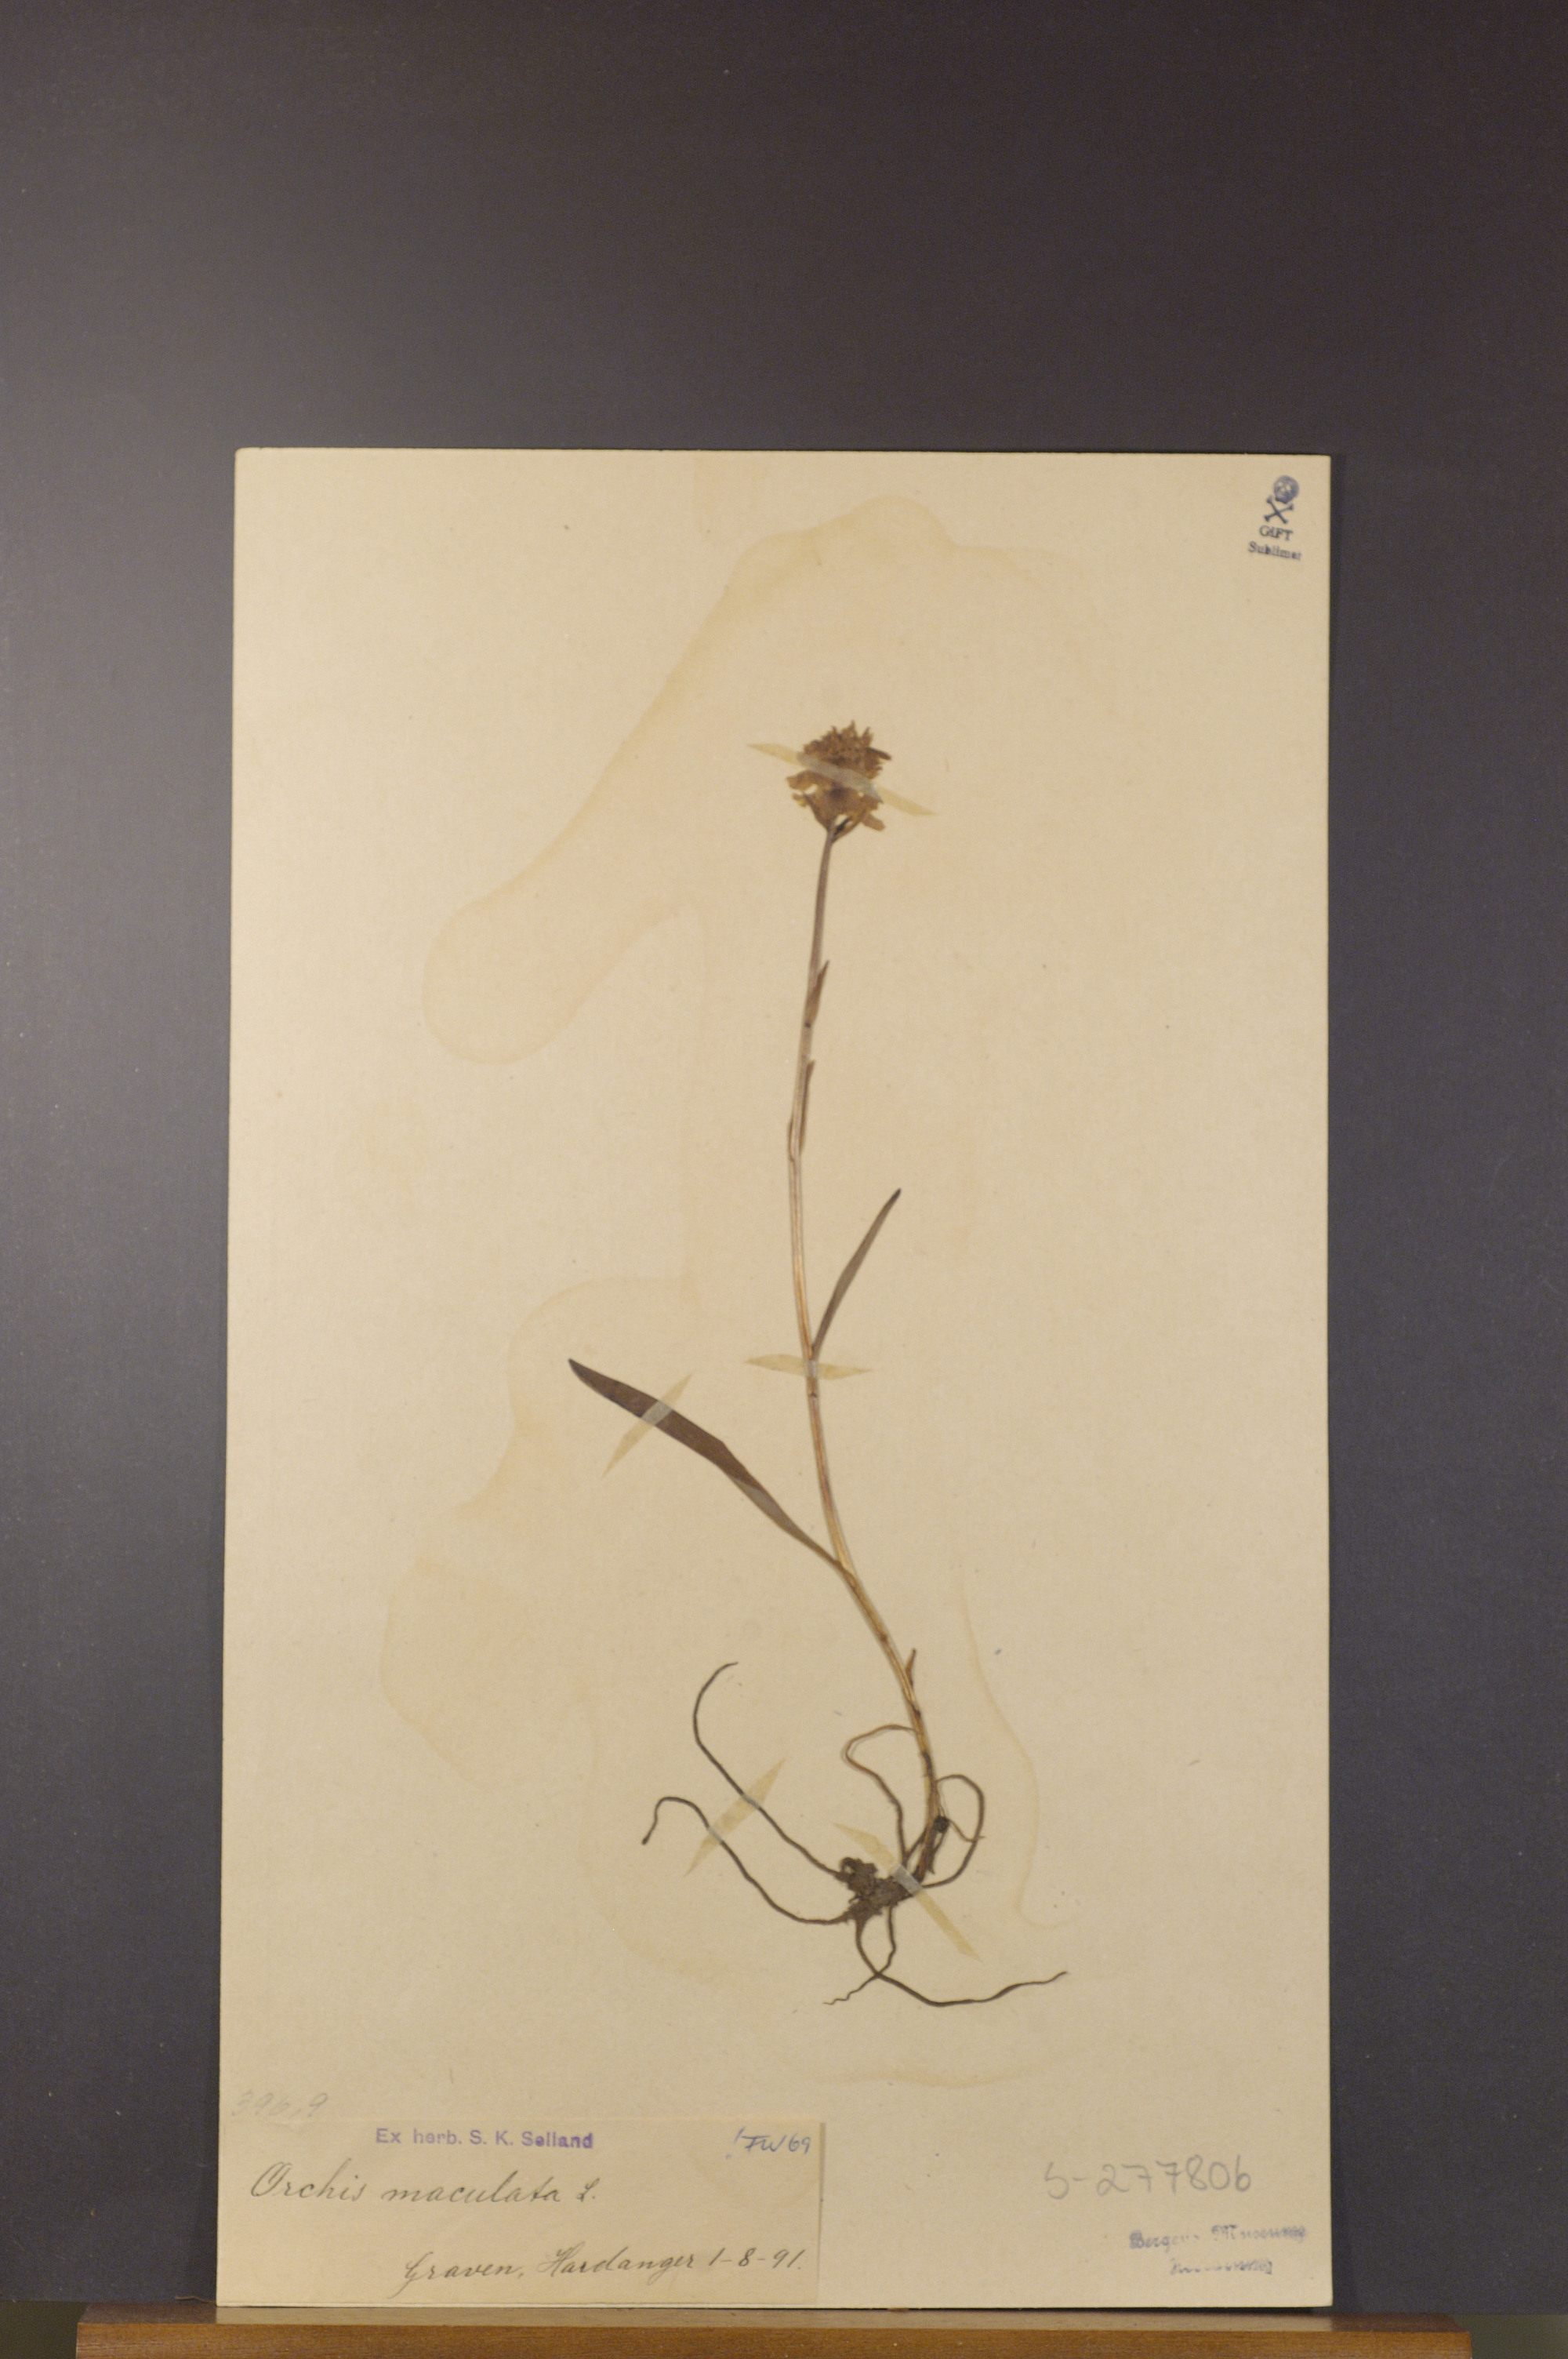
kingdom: Plantae
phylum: Tracheophyta
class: Liliopsida
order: Asparagales
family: Orchidaceae
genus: Dactylorhiza
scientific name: Dactylorhiza maculata
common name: Heath spotted-orchid
